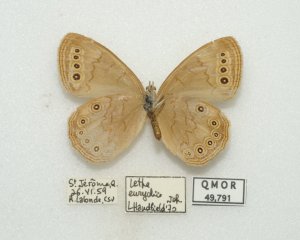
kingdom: Animalia
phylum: Arthropoda
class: Insecta
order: Lepidoptera
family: Nymphalidae
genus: Lethe
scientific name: Lethe eurydice
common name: Eyed Brown
